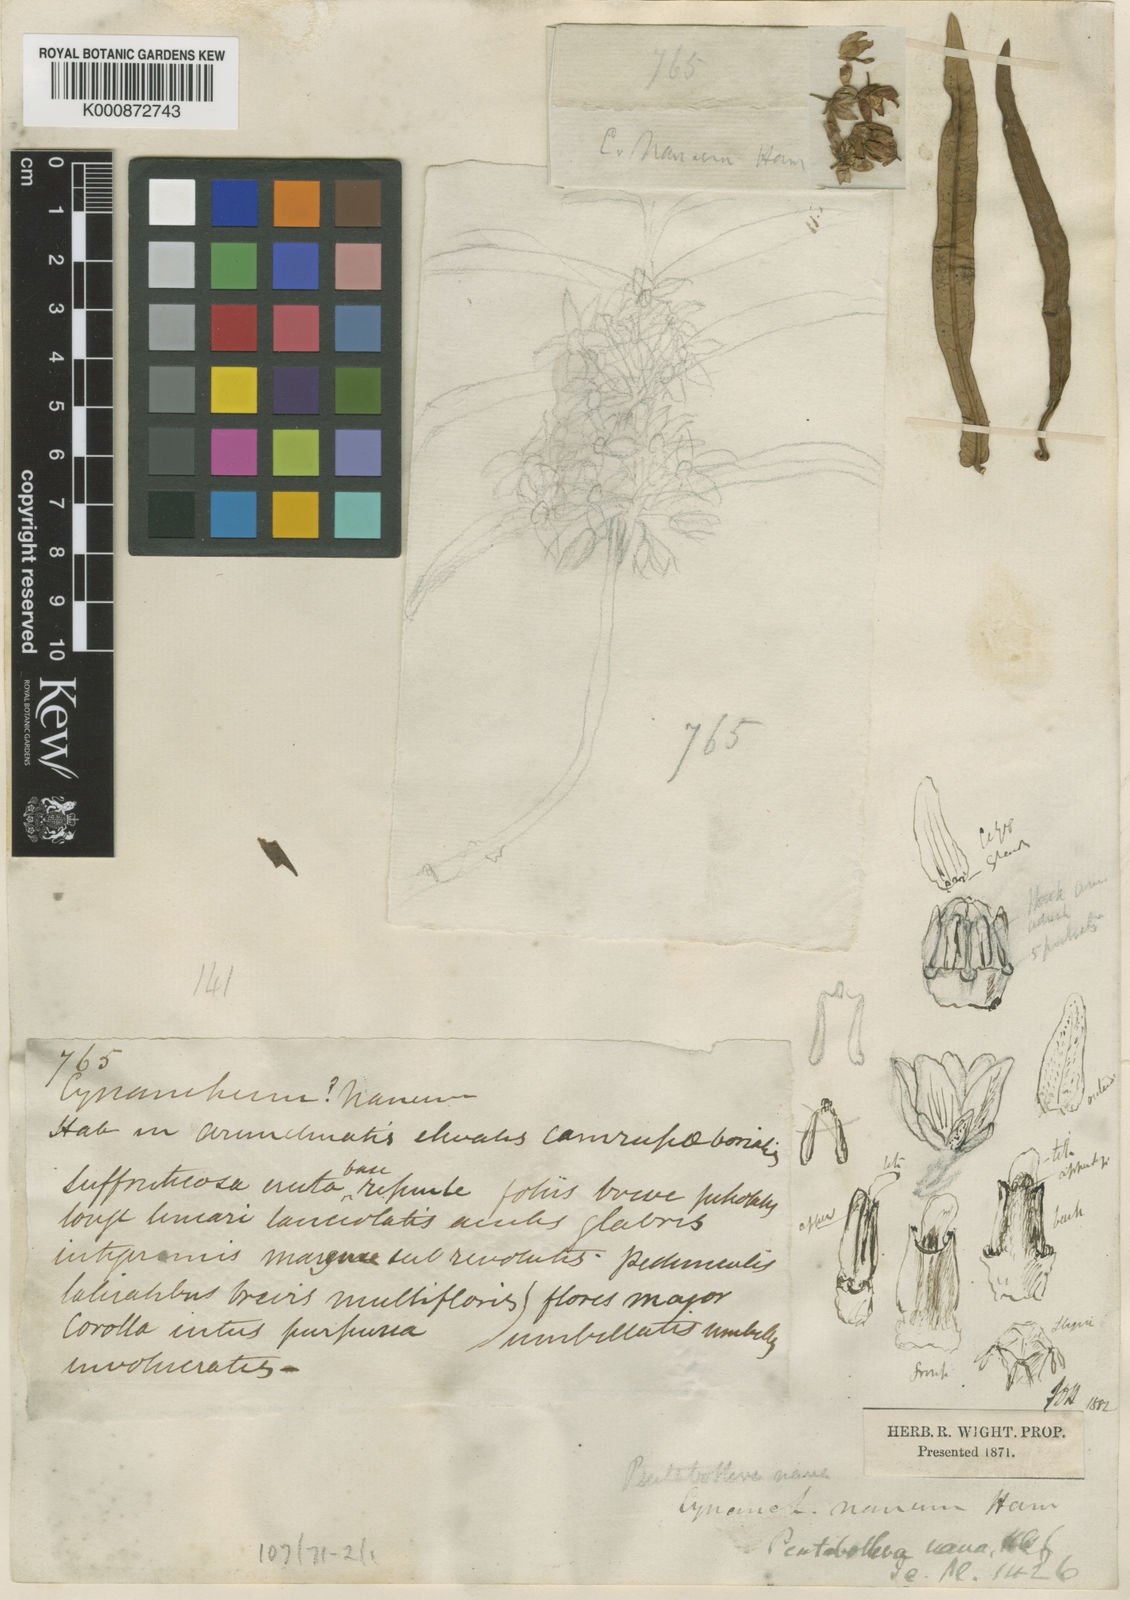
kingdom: Plantae
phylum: Tracheophyta
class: Magnoliopsida
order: Gentianales
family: Apocynaceae
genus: Vincetoxicum
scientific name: Vincetoxicum nanum
